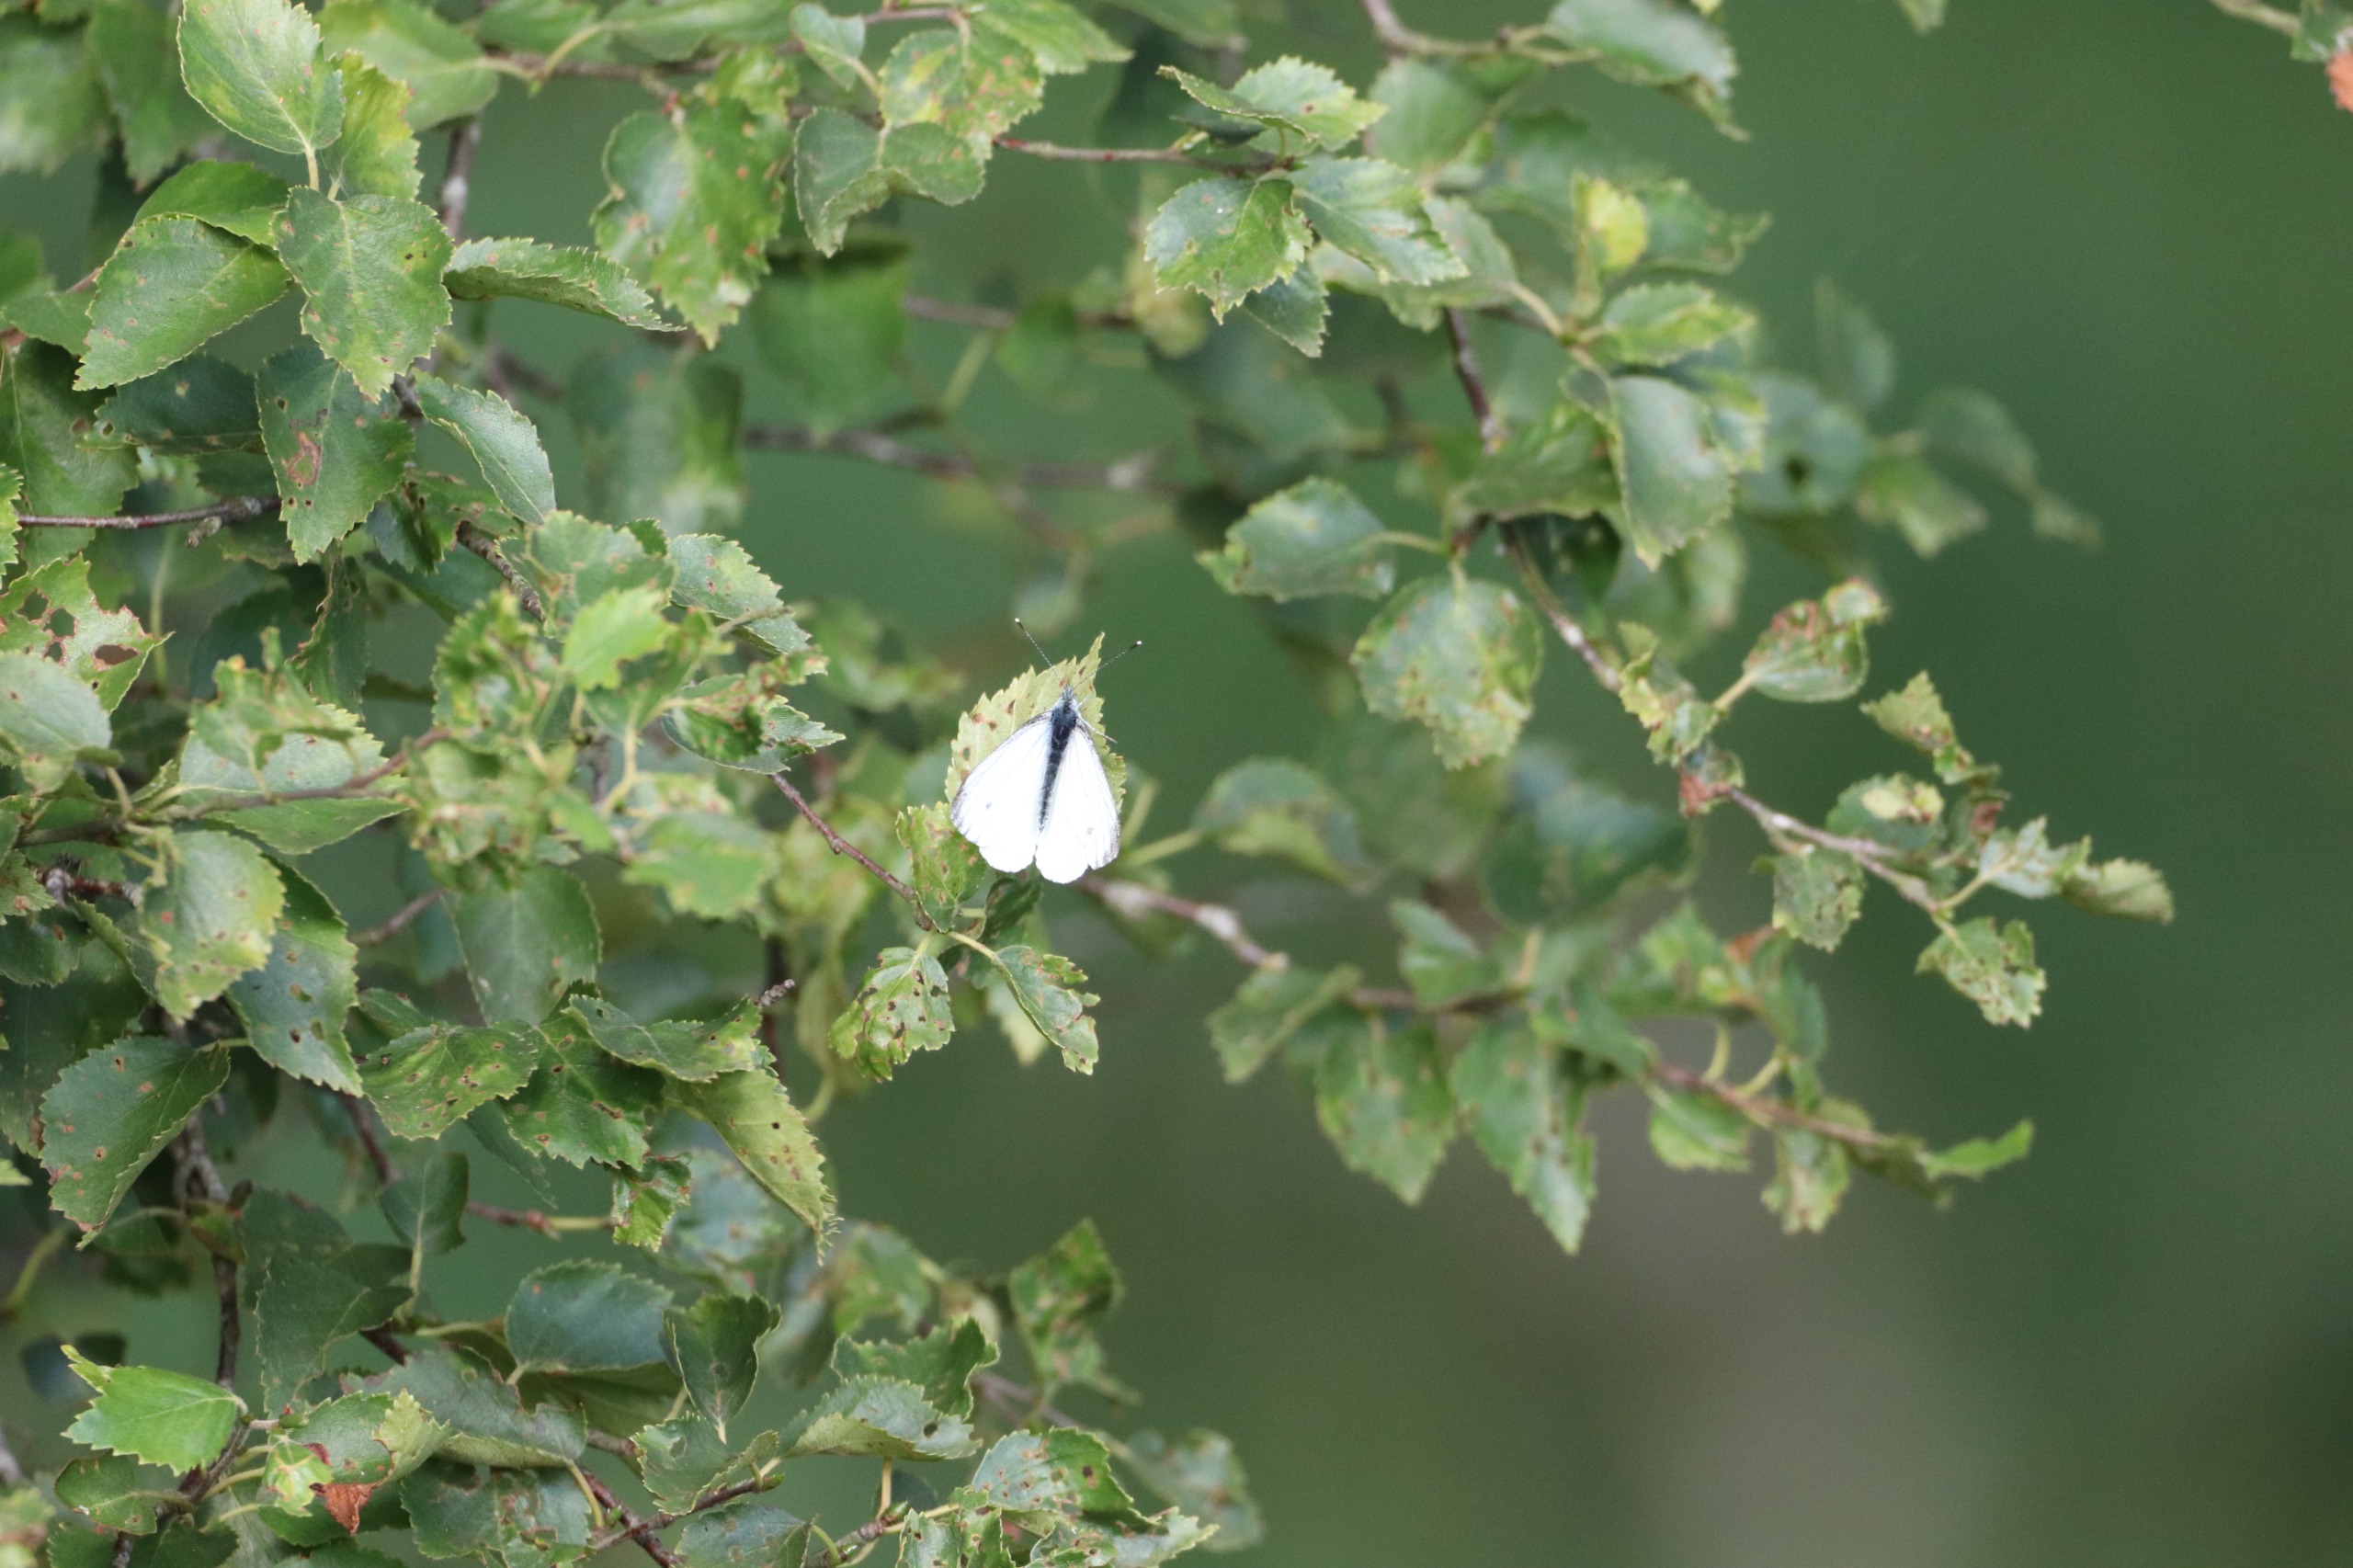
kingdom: Animalia
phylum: Arthropoda
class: Insecta
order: Lepidoptera
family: Pieridae
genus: Pieris
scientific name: Pieris napi
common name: Grønåret kålsommerfugl
